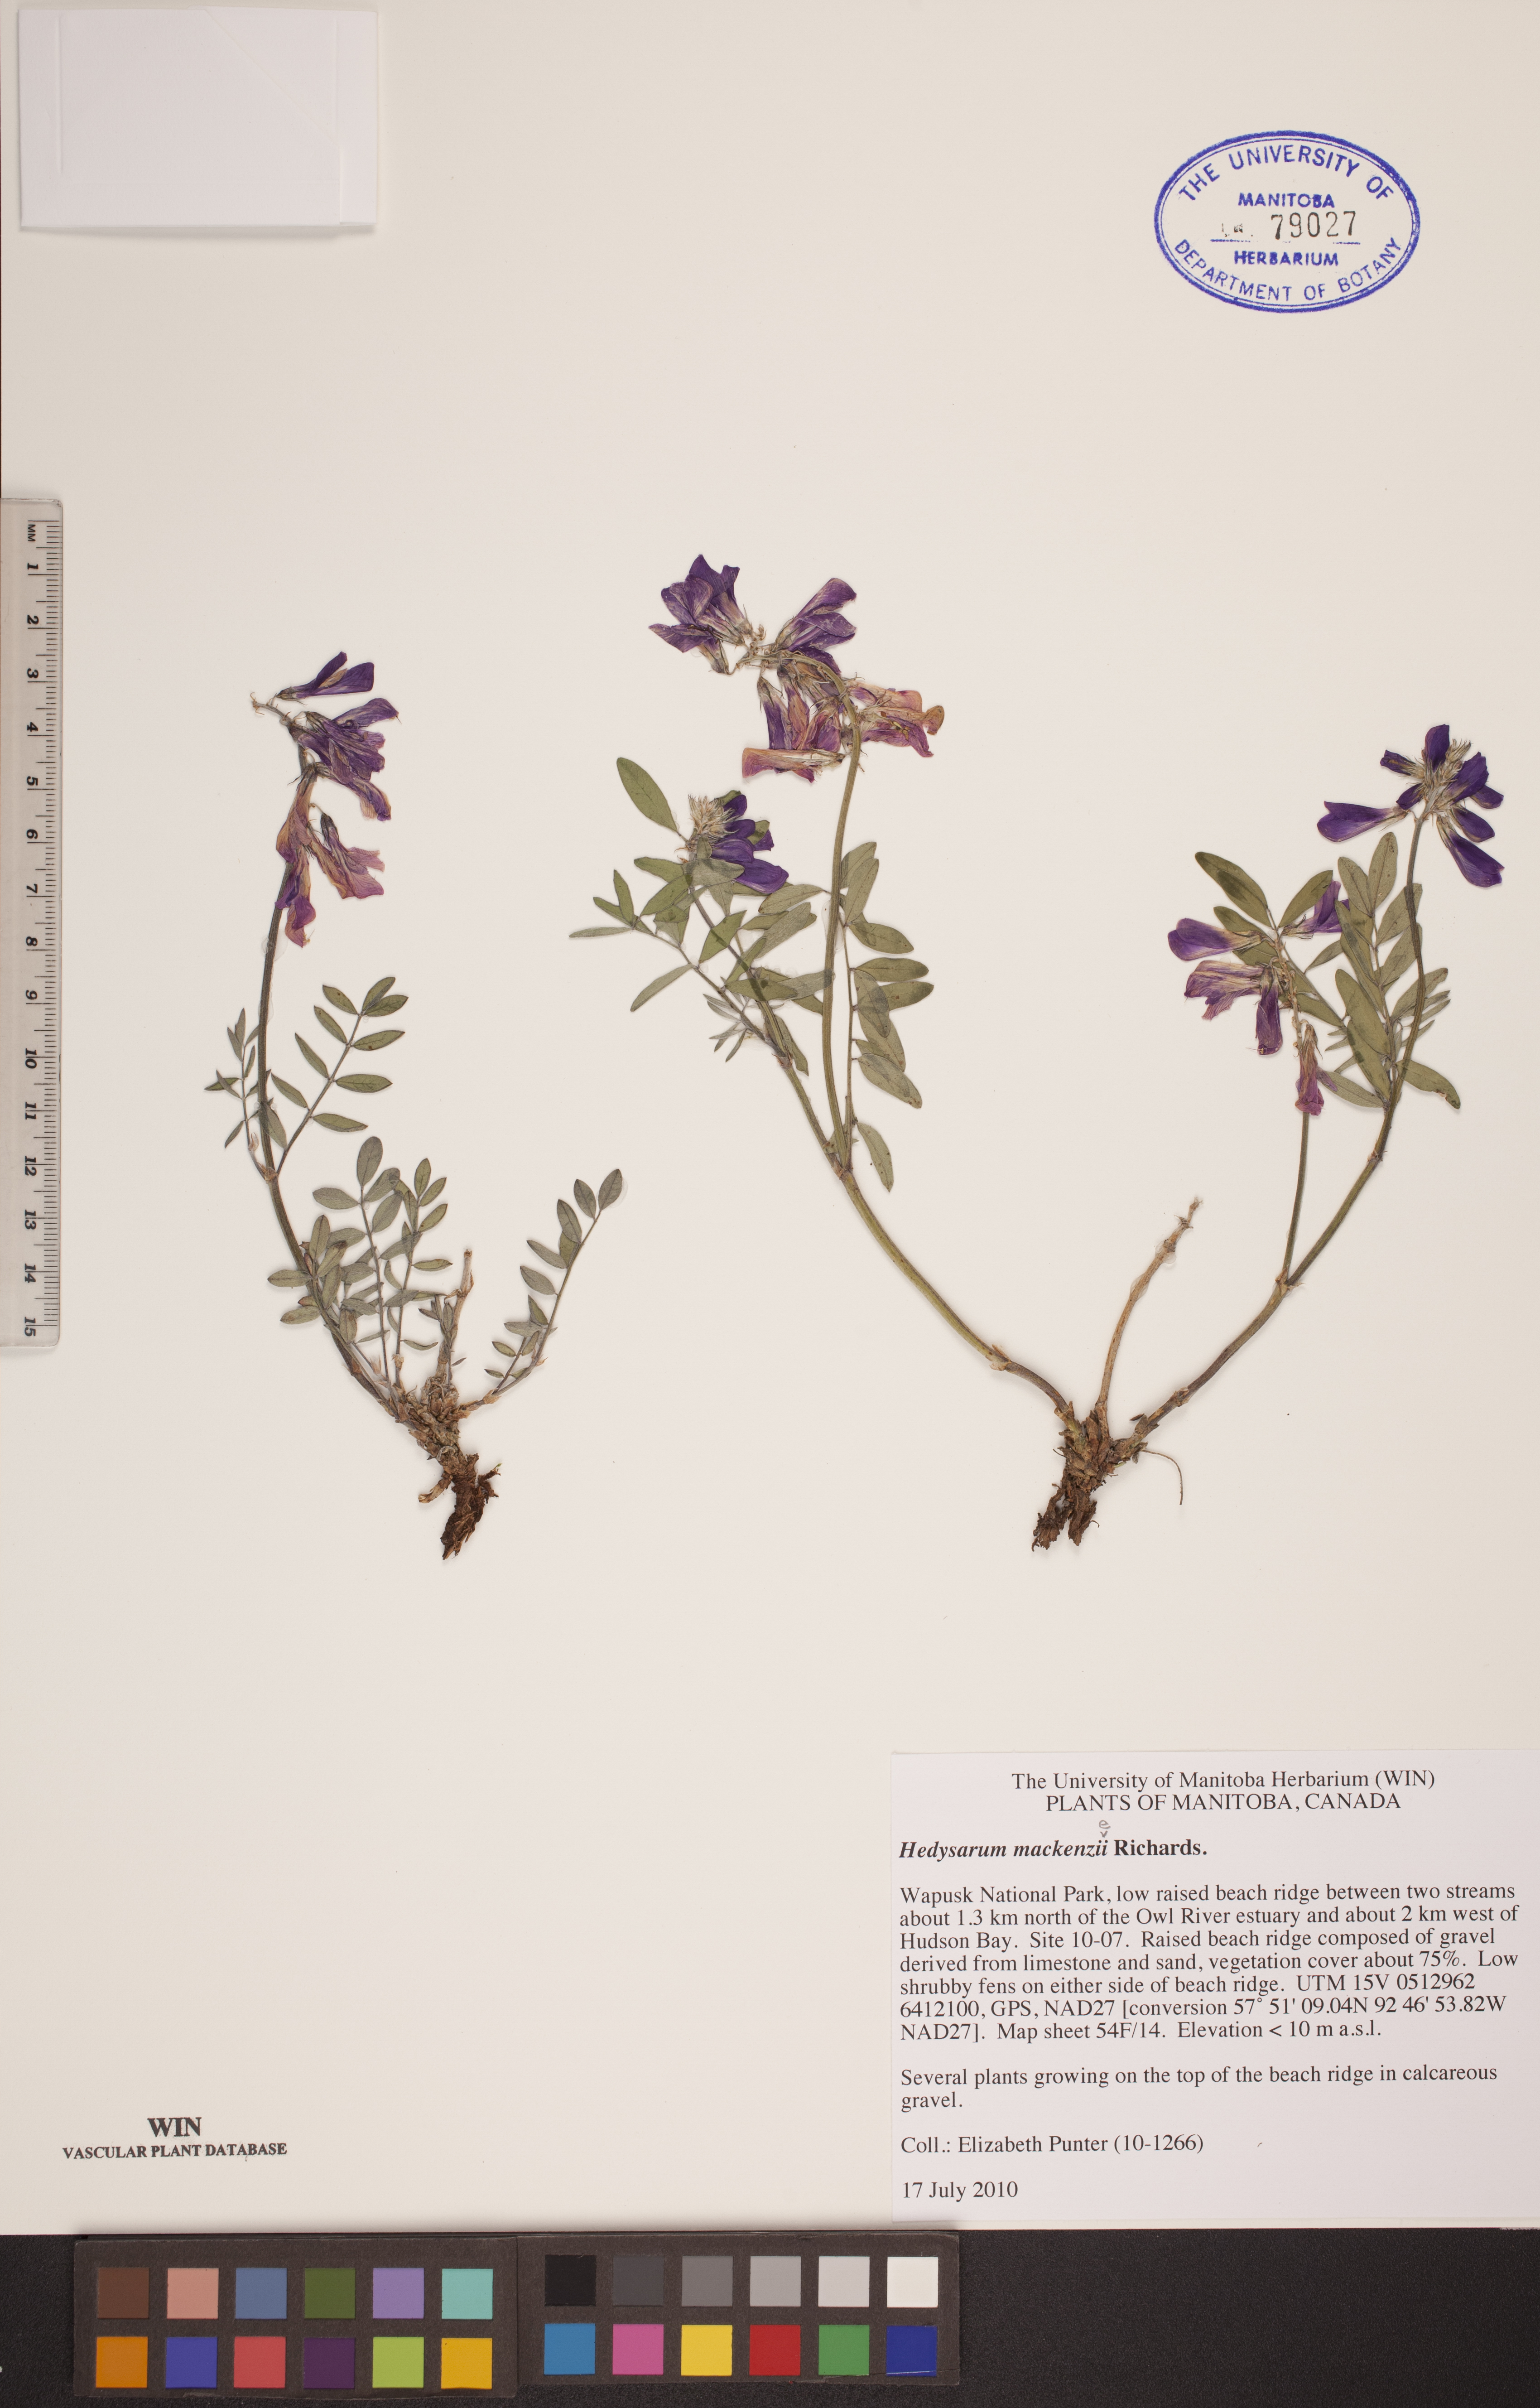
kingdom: Plantae
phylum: Tracheophyta
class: Magnoliopsida
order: Fabales
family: Fabaceae
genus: Hedysarum
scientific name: Hedysarum boreale
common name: Northern sweet-vetch
